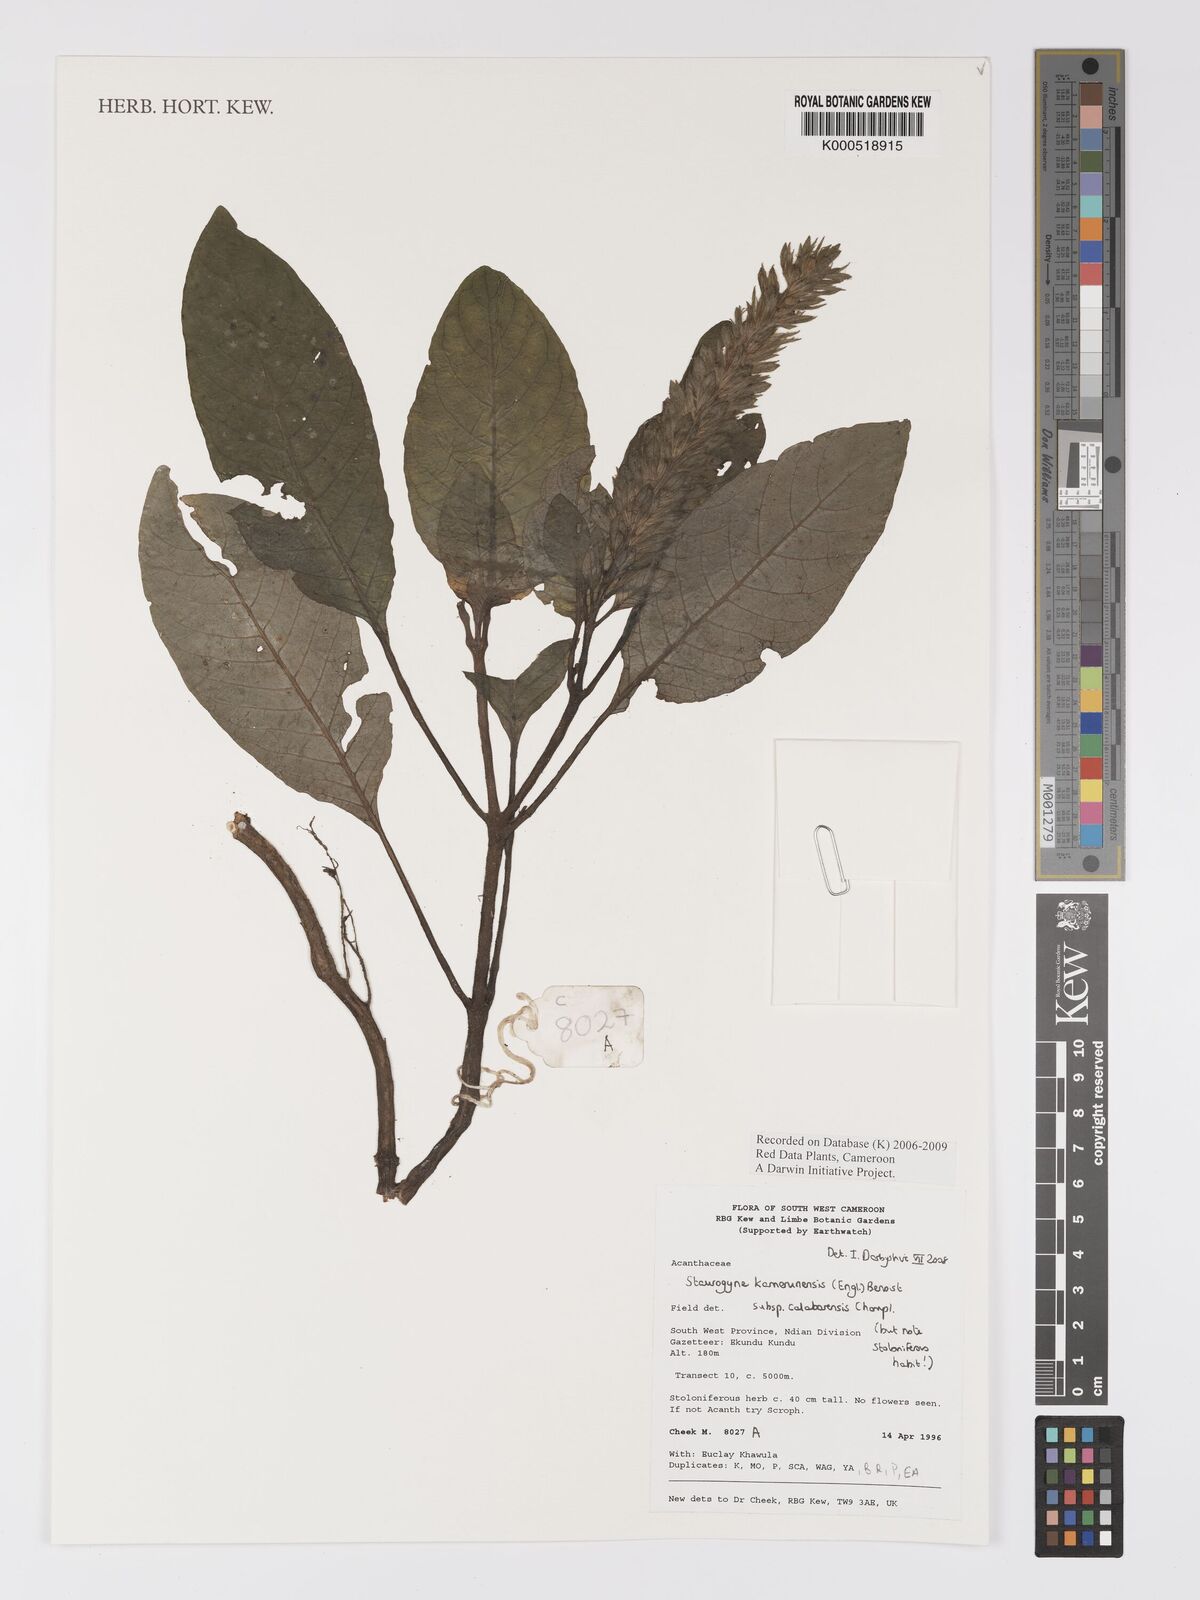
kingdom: Plantae
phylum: Tracheophyta
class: Magnoliopsida
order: Lamiales
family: Acanthaceae
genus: Staurogyne
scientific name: Staurogyne kamerunensis
